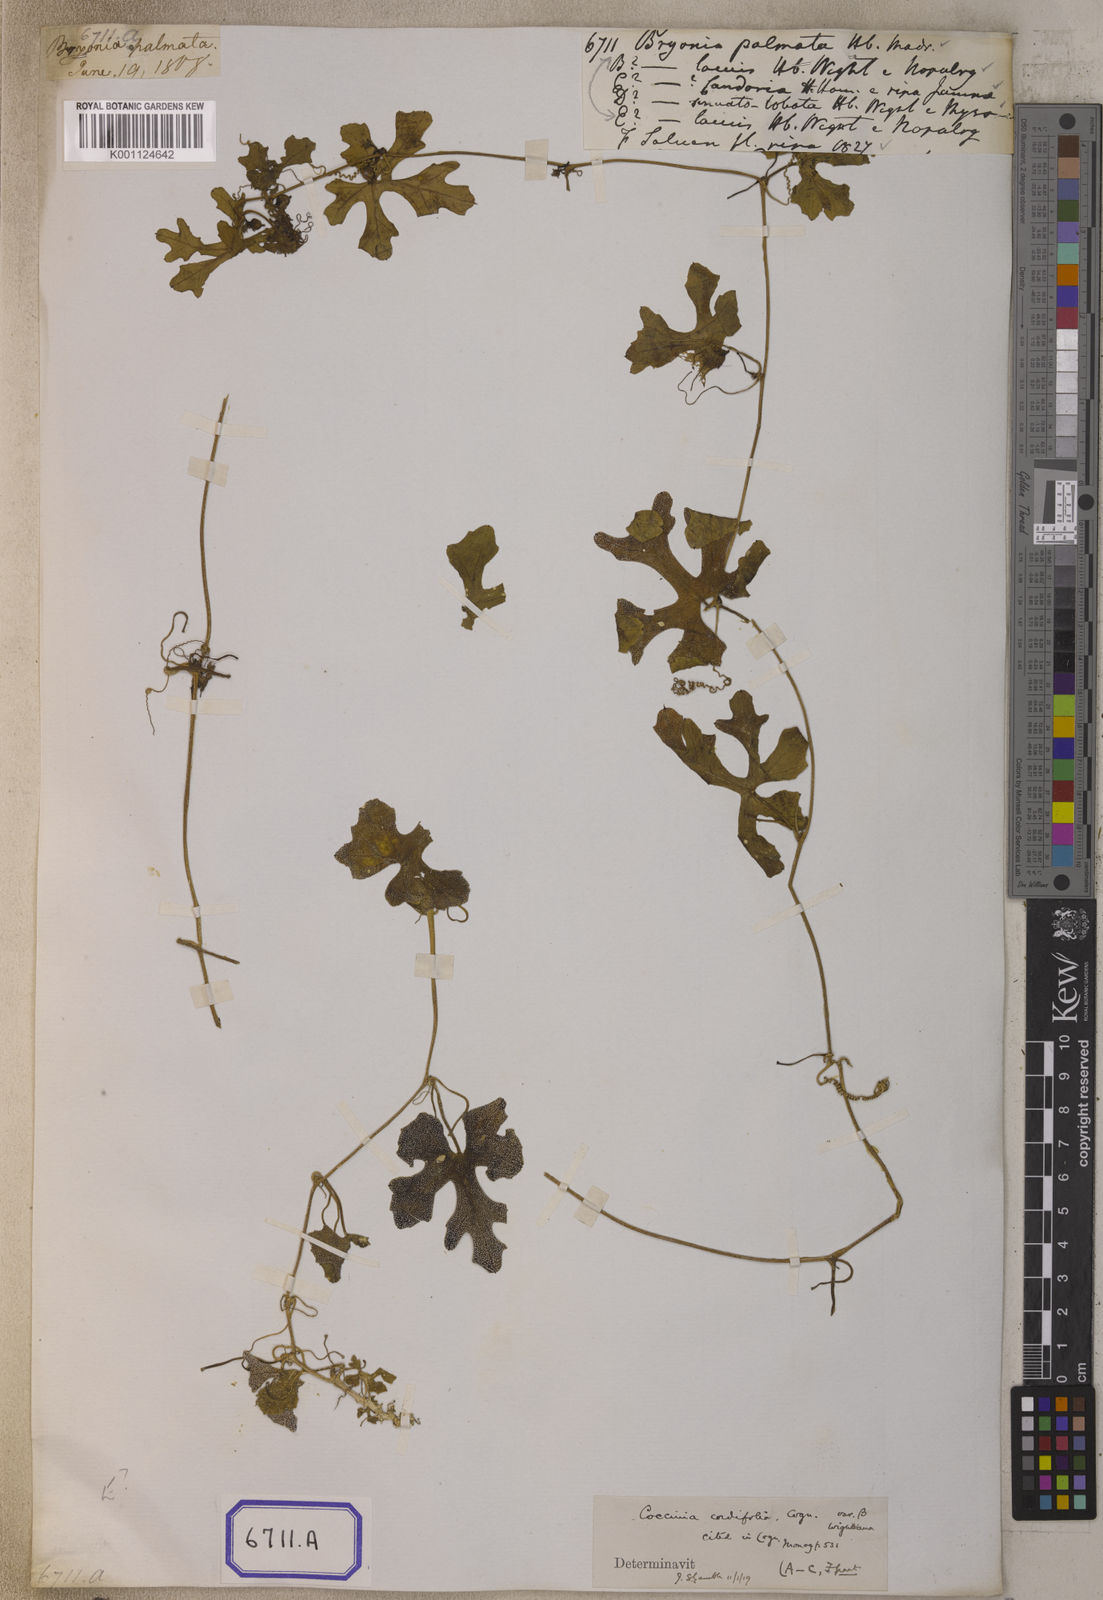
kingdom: Plantae
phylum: Tracheophyta
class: Magnoliopsida
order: Cucurbitales
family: Cucurbitaceae
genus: Bryonia
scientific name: Bryonia
